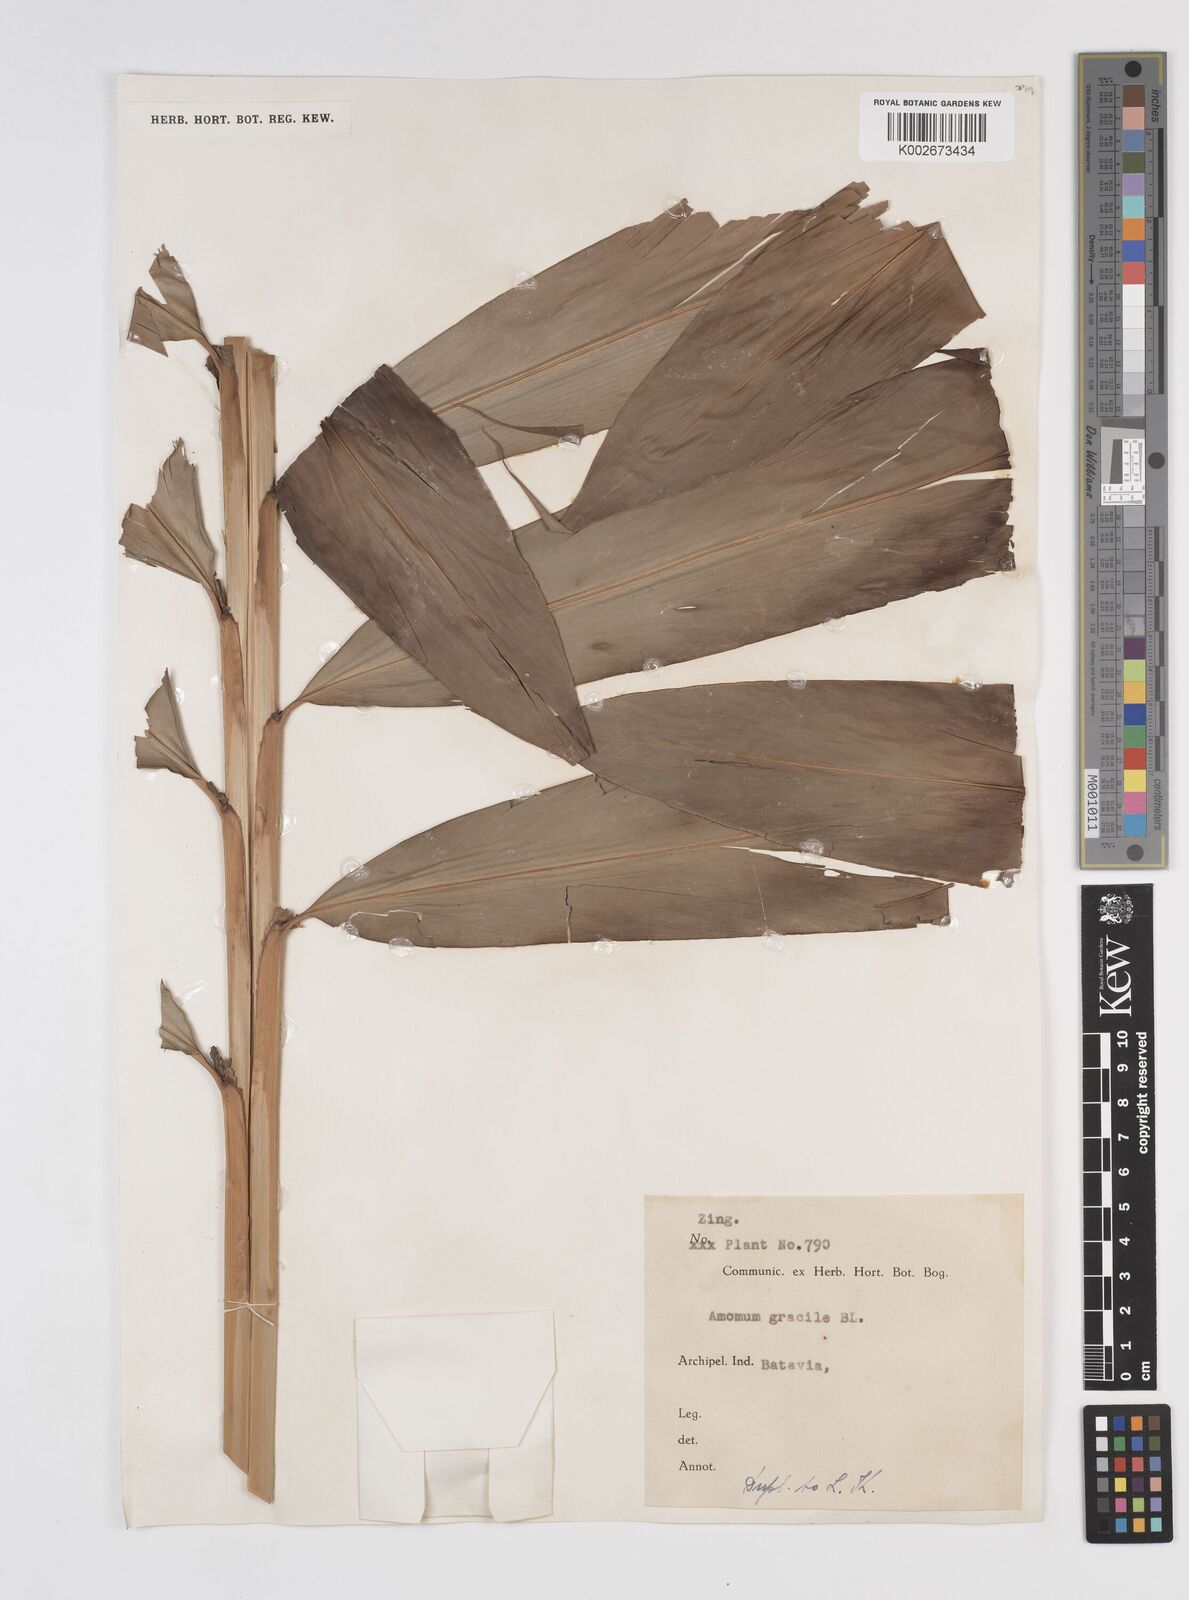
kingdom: Plantae
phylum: Tracheophyta
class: Liliopsida
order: Zingiberales
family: Zingiberaceae
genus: Wurfbainia
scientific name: Wurfbainia gracilis
